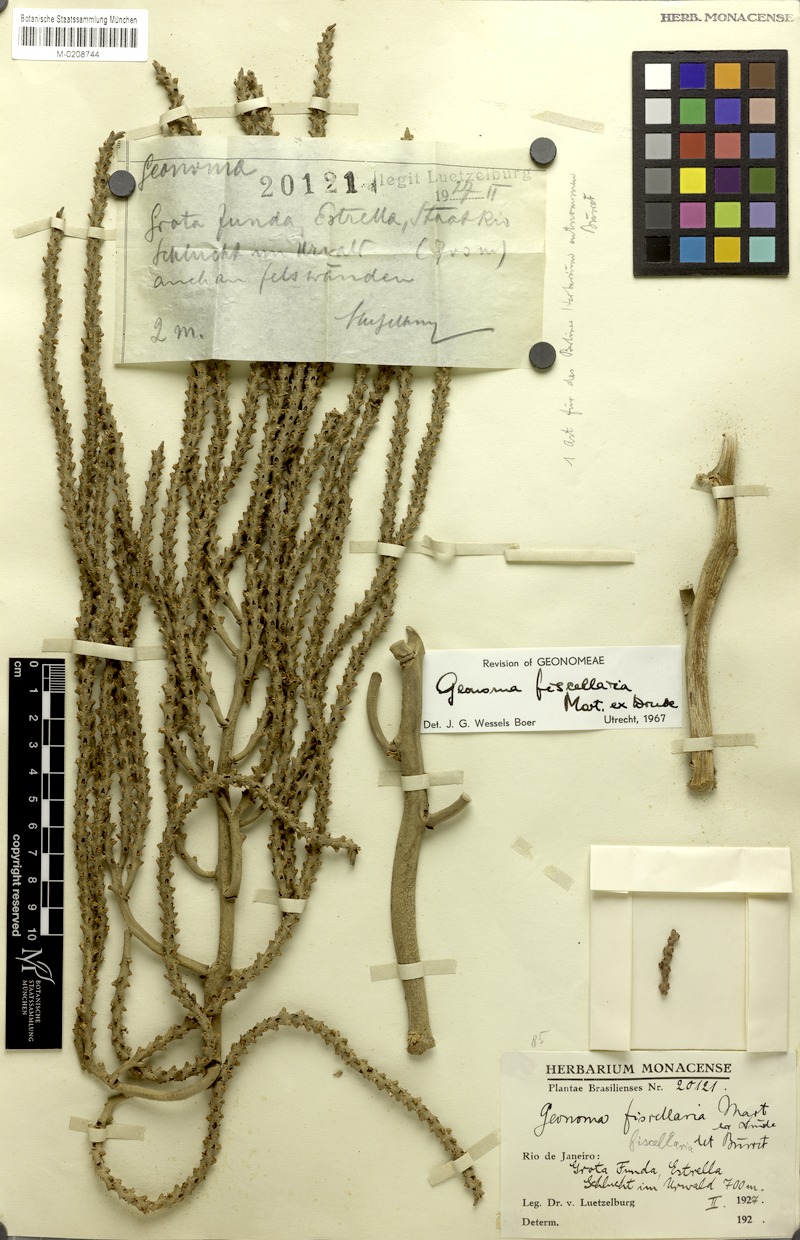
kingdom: Plantae
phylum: Tracheophyta
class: Liliopsida
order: Arecales
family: Arecaceae
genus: Geonoma
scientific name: Geonoma pohliana
